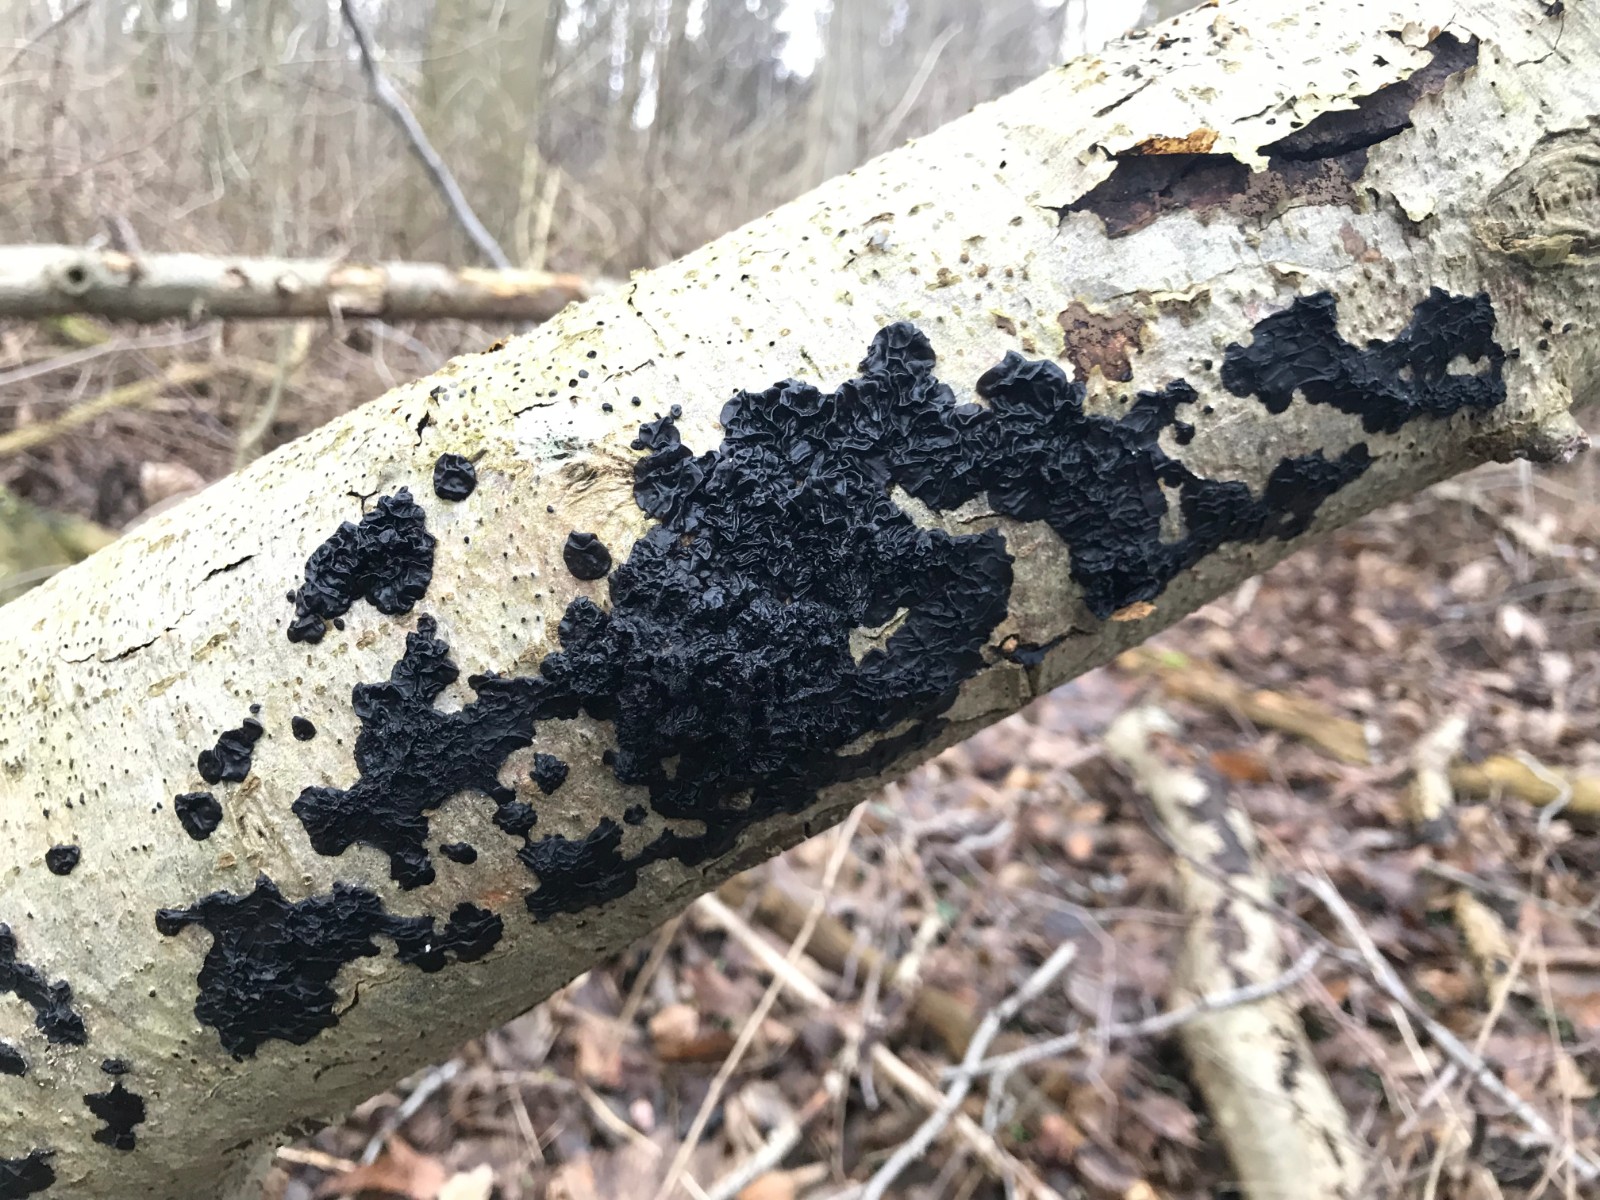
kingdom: Fungi
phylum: Basidiomycota
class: Agaricomycetes
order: Auriculariales
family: Auriculariaceae
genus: Exidia
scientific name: Exidia nigricans
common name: almindelig bævretop
